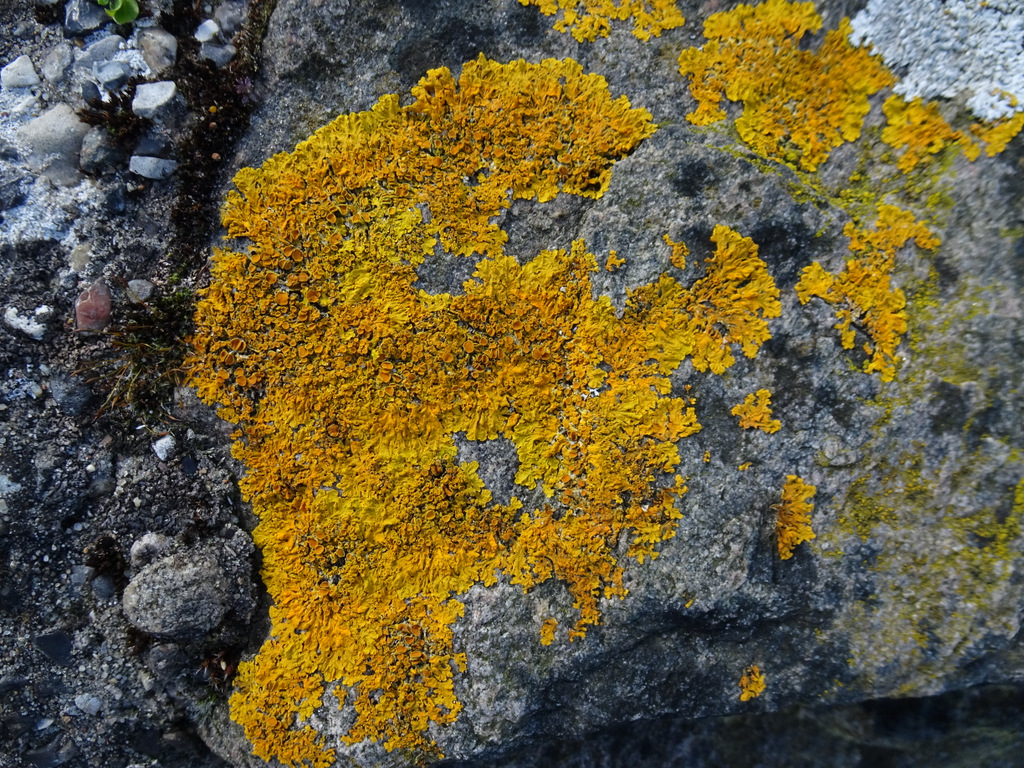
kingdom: Fungi
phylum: Ascomycota
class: Lecanoromycetes
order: Teloschistales
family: Teloschistaceae
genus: Xanthoria
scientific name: Xanthoria parietina
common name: almindelig væggelav
